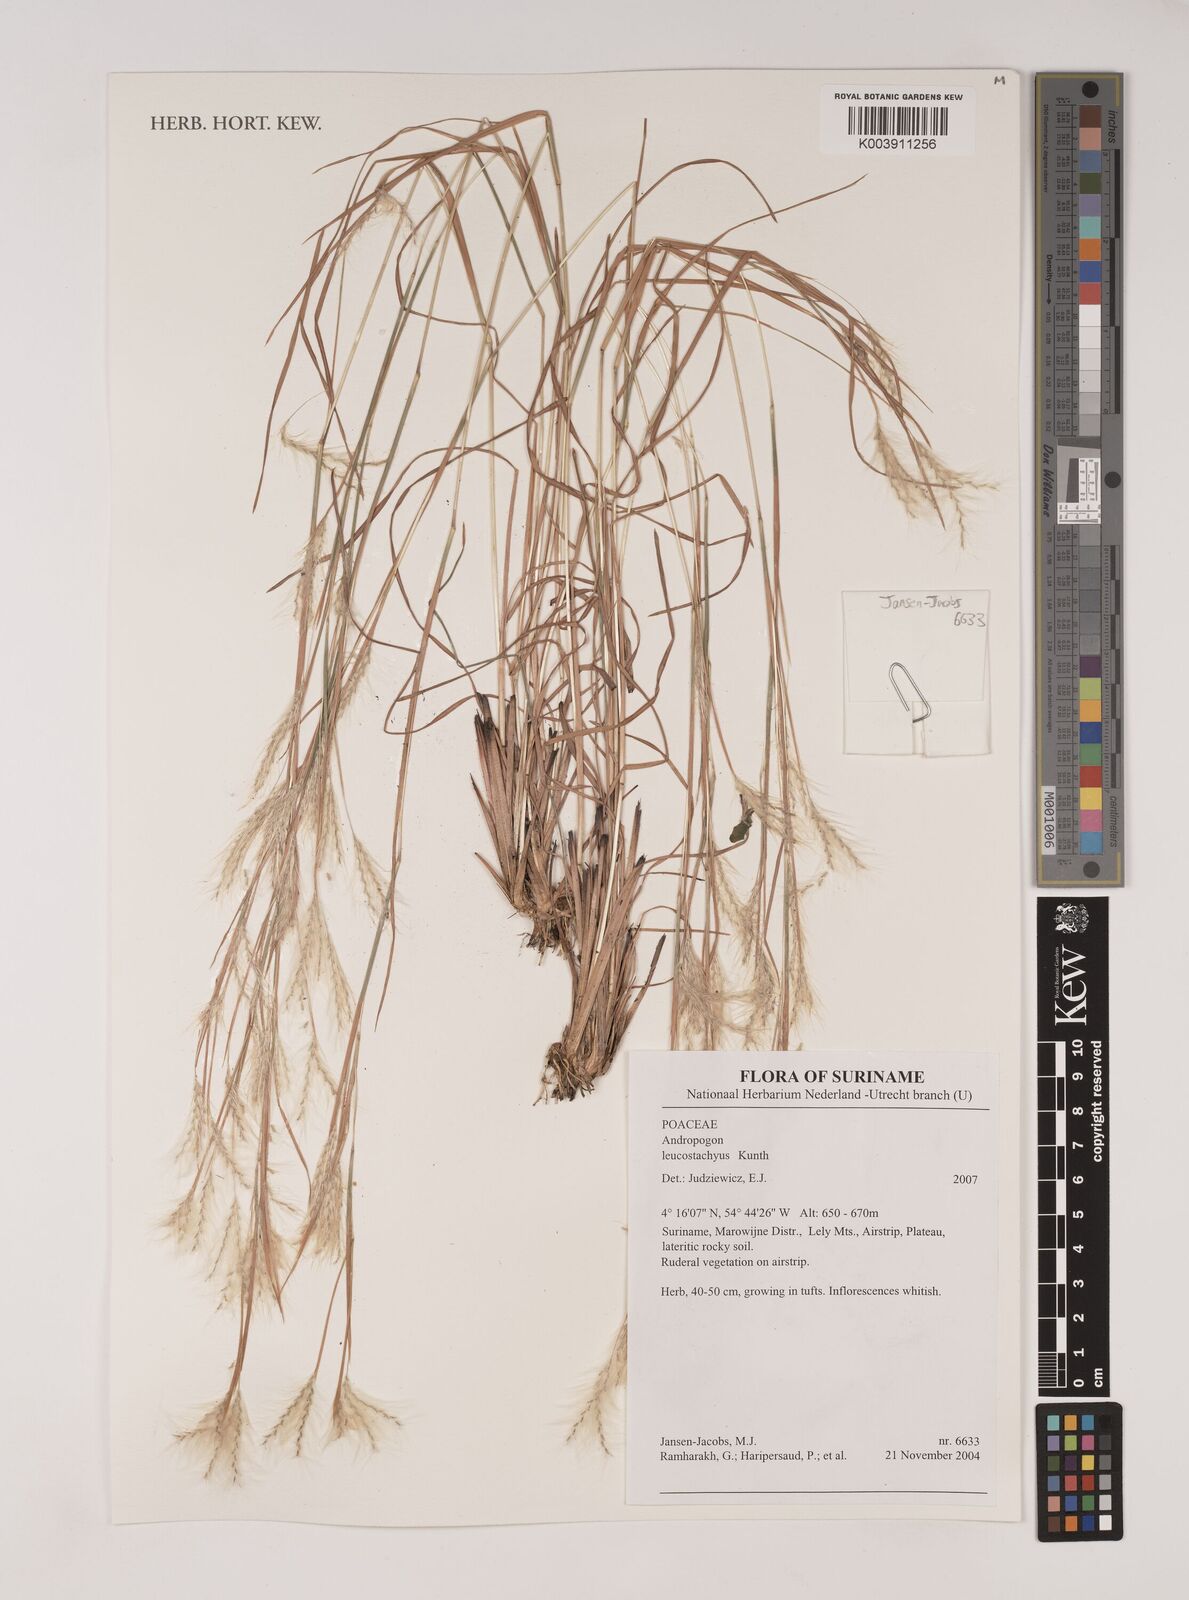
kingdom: Plantae
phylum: Tracheophyta
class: Liliopsida
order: Poales
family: Poaceae
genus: Andropogon
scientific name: Andropogon leucostachyus
